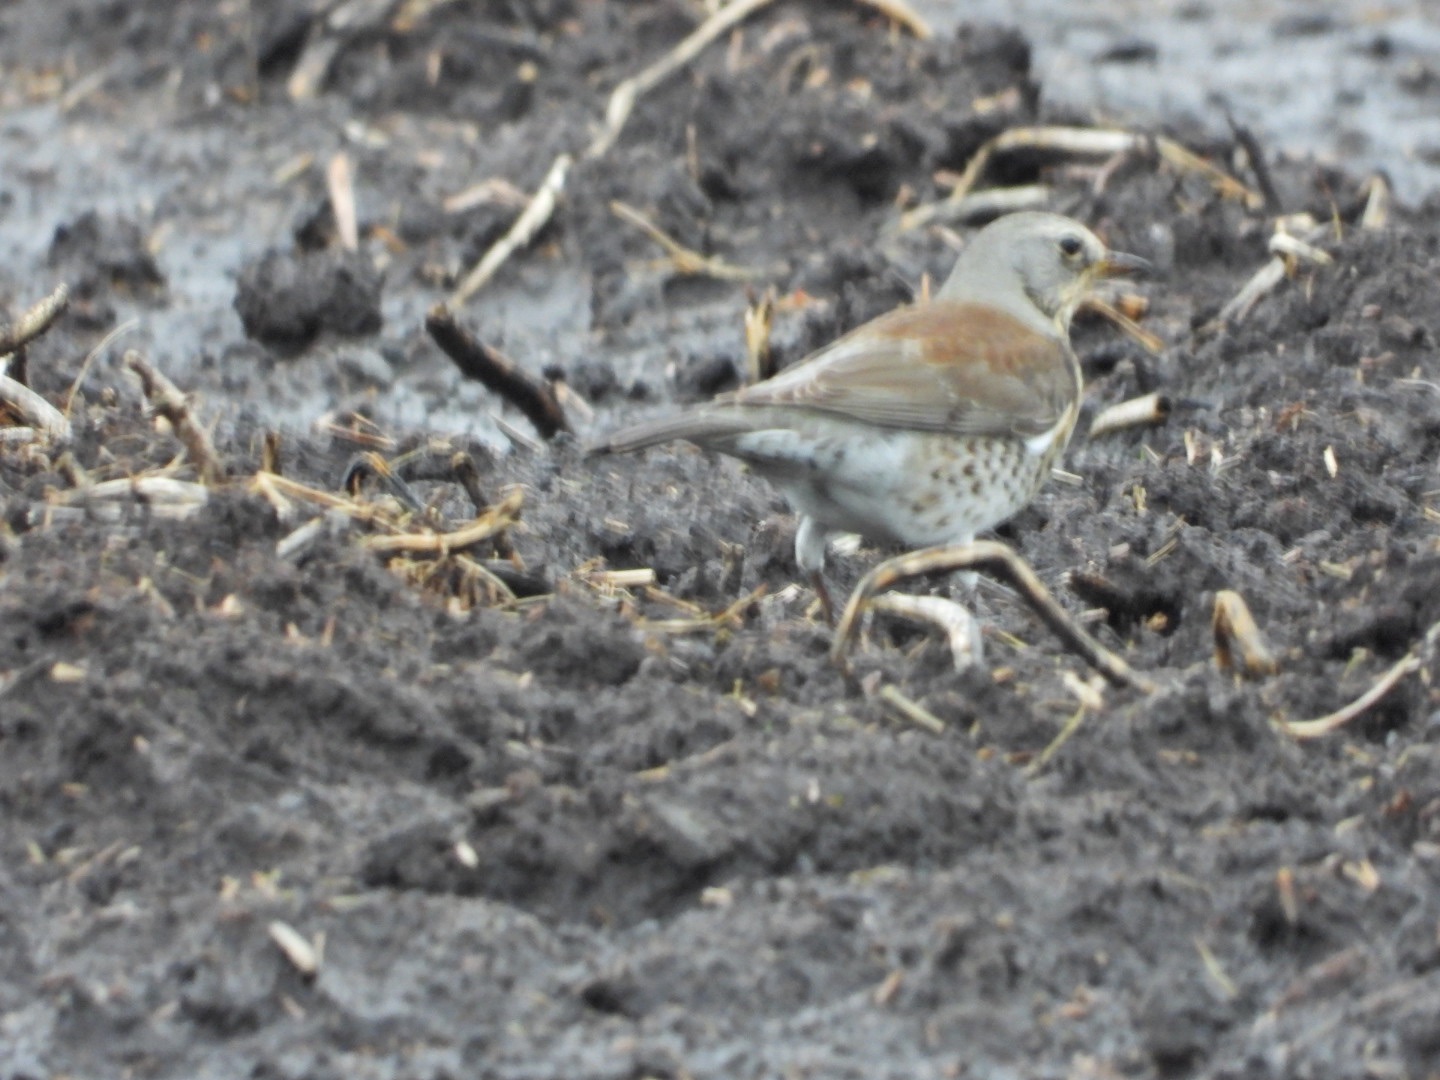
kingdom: Animalia
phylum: Chordata
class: Aves
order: Passeriformes
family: Turdidae
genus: Turdus
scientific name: Turdus pilaris
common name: Sjagger
